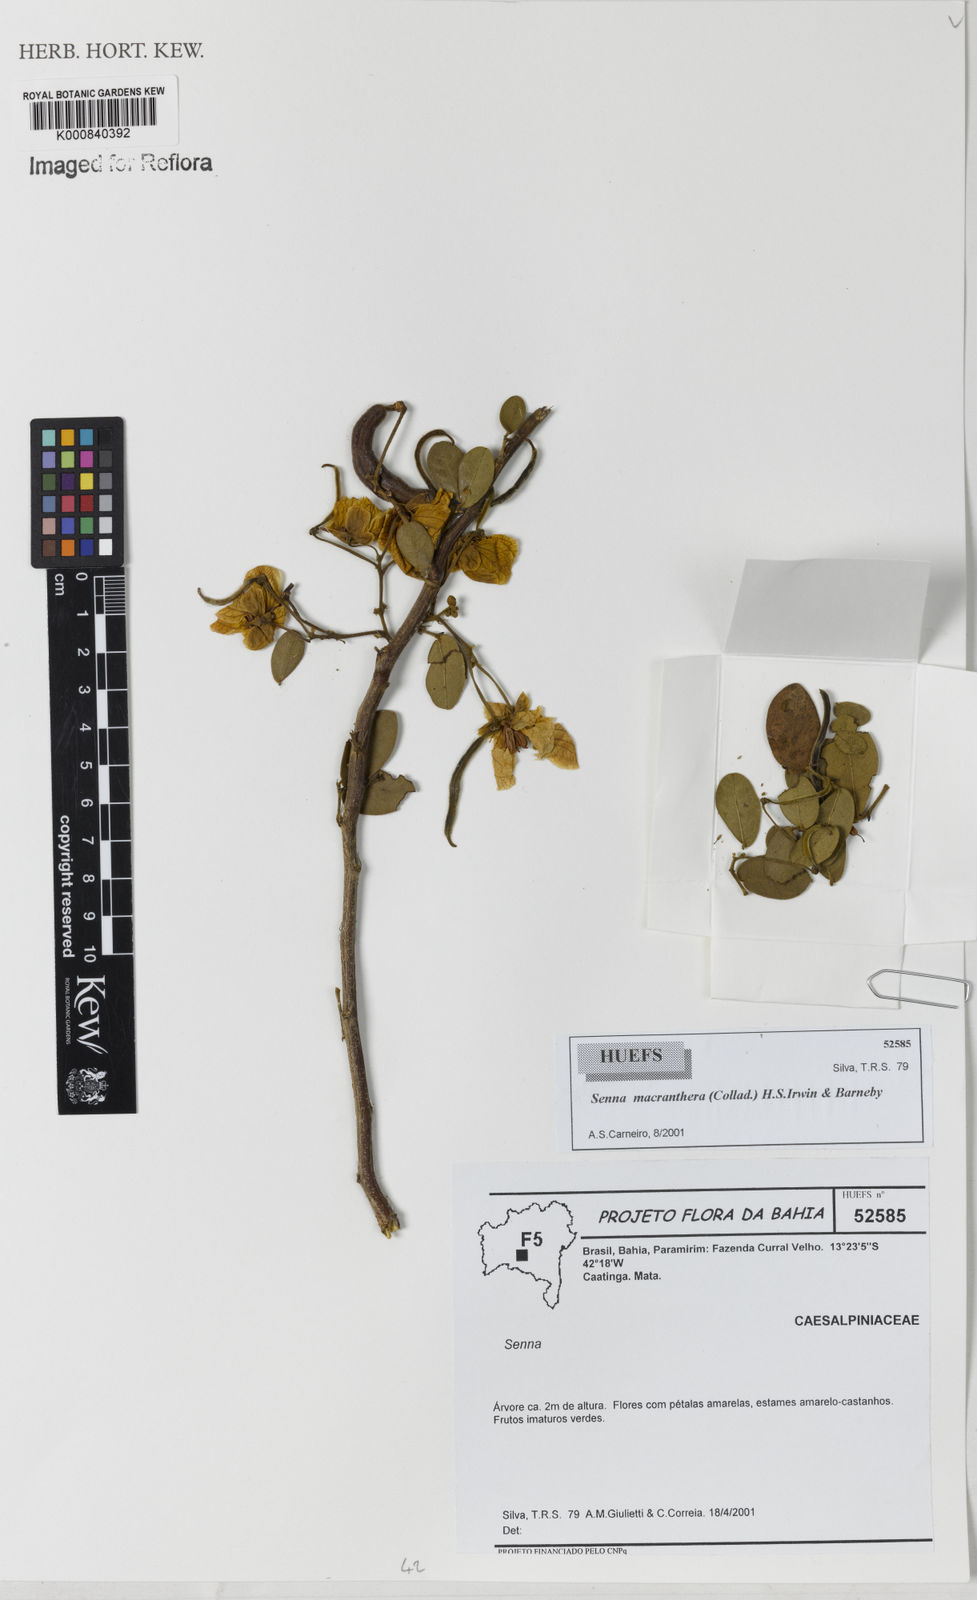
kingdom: Plantae
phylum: Tracheophyta
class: Magnoliopsida
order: Fabales
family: Fabaceae
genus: Senna
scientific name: Senna macranthera
